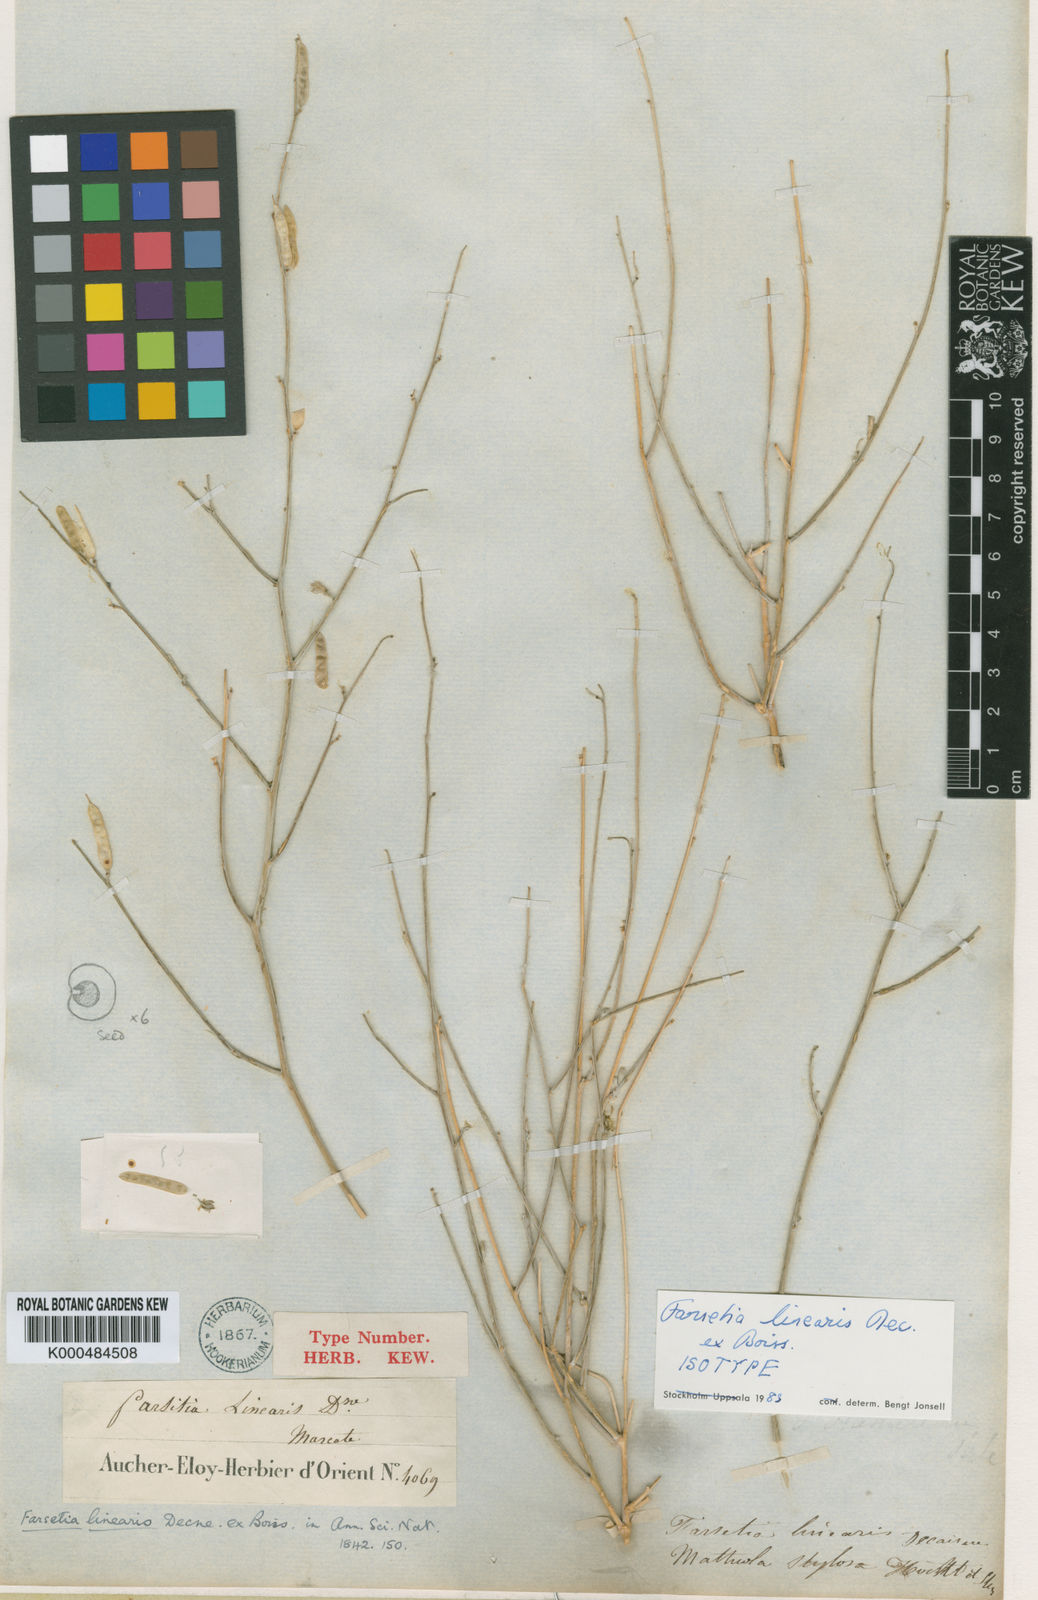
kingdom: Plantae
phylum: Tracheophyta
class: Magnoliopsida
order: Brassicales
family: Brassicaceae
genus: Farsetia
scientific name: Farsetia linearis
